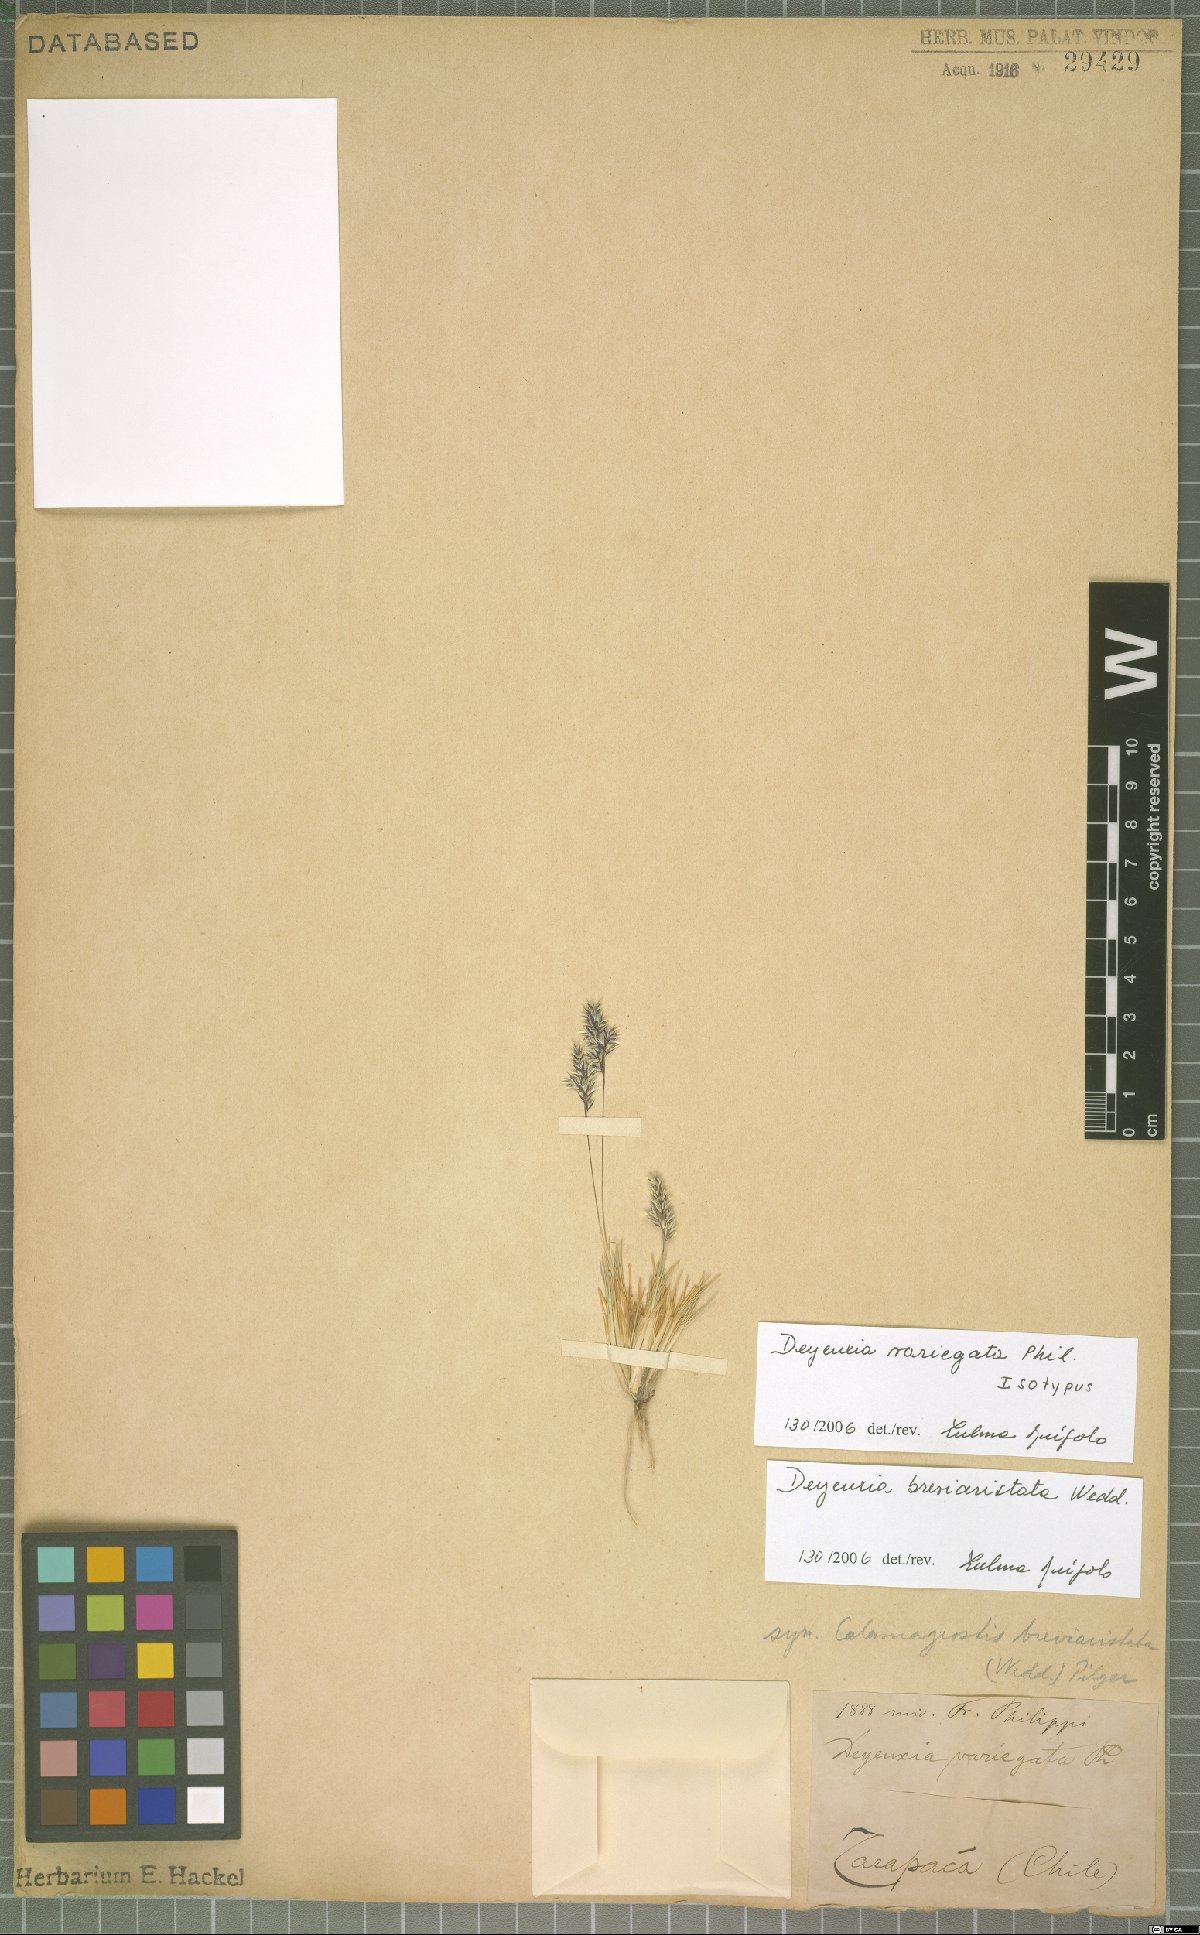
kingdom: Plantae
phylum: Tracheophyta
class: Liliopsida
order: Poales
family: Poaceae
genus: Cinnagrostis
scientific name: Cinnagrostis breviaristata
